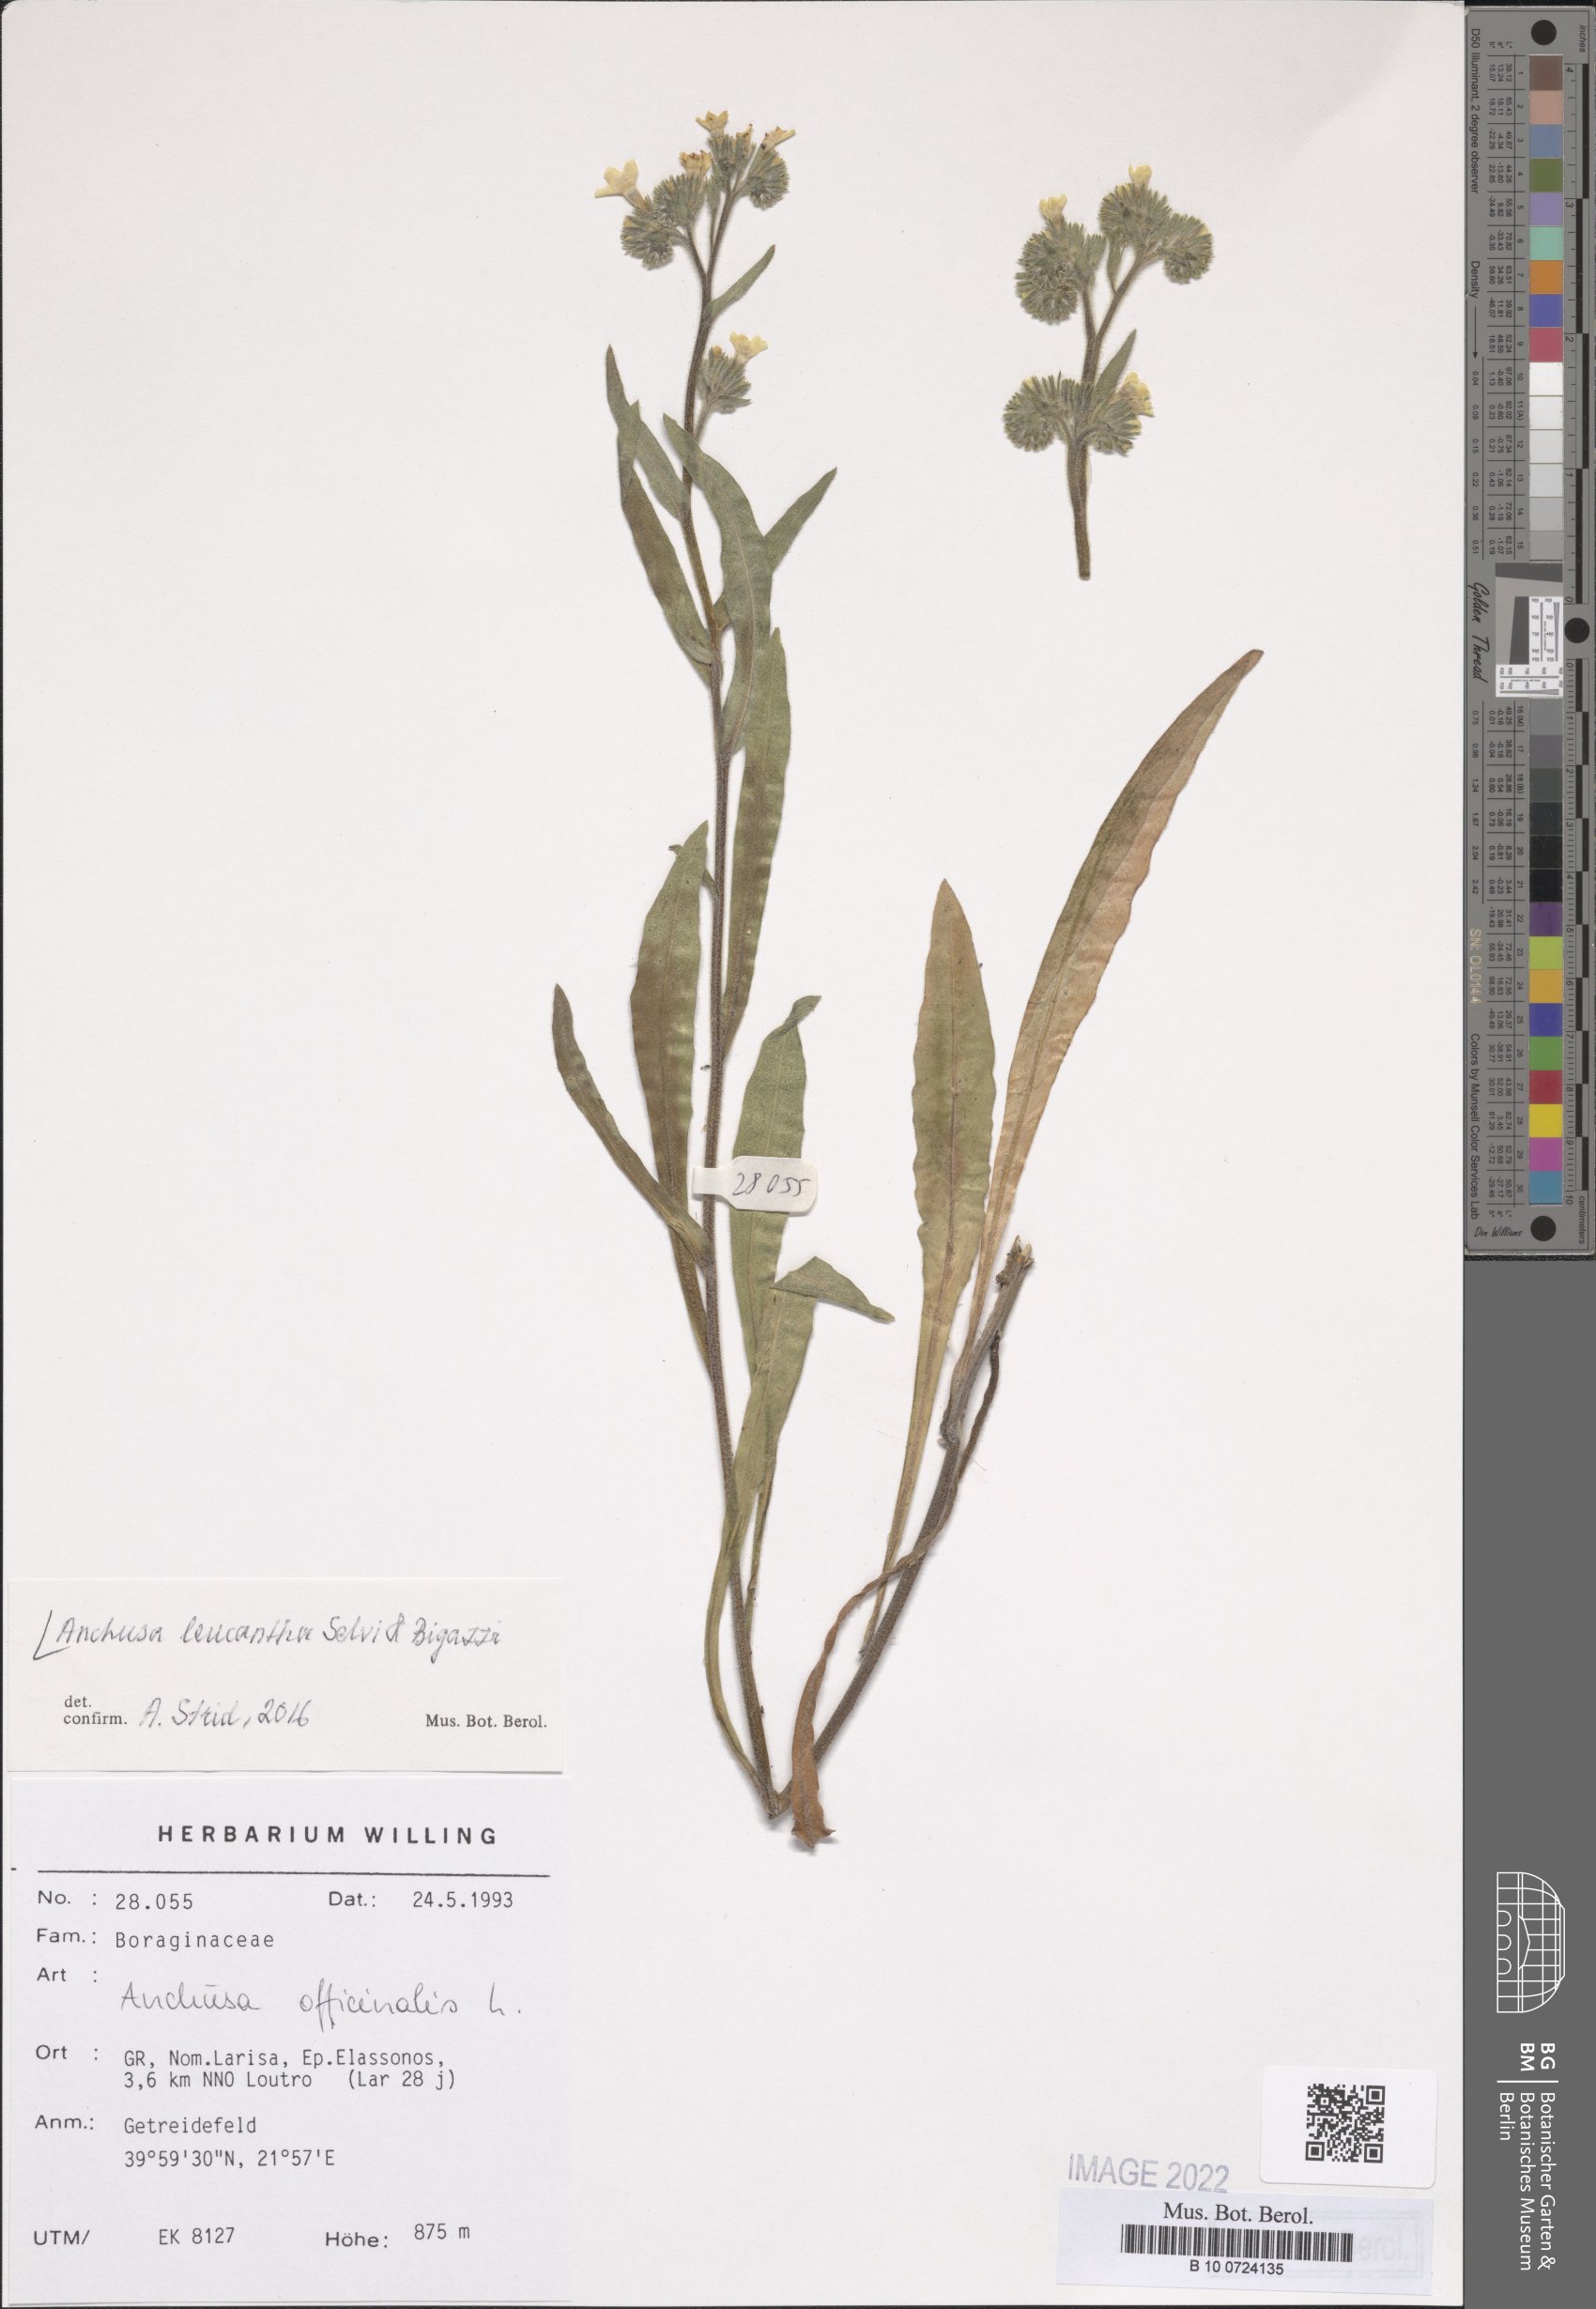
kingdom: Plantae
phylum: Tracheophyta
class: Magnoliopsida
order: Boraginales
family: Boraginaceae
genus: Anchusa
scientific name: Anchusa officinalis
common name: Alkanet
